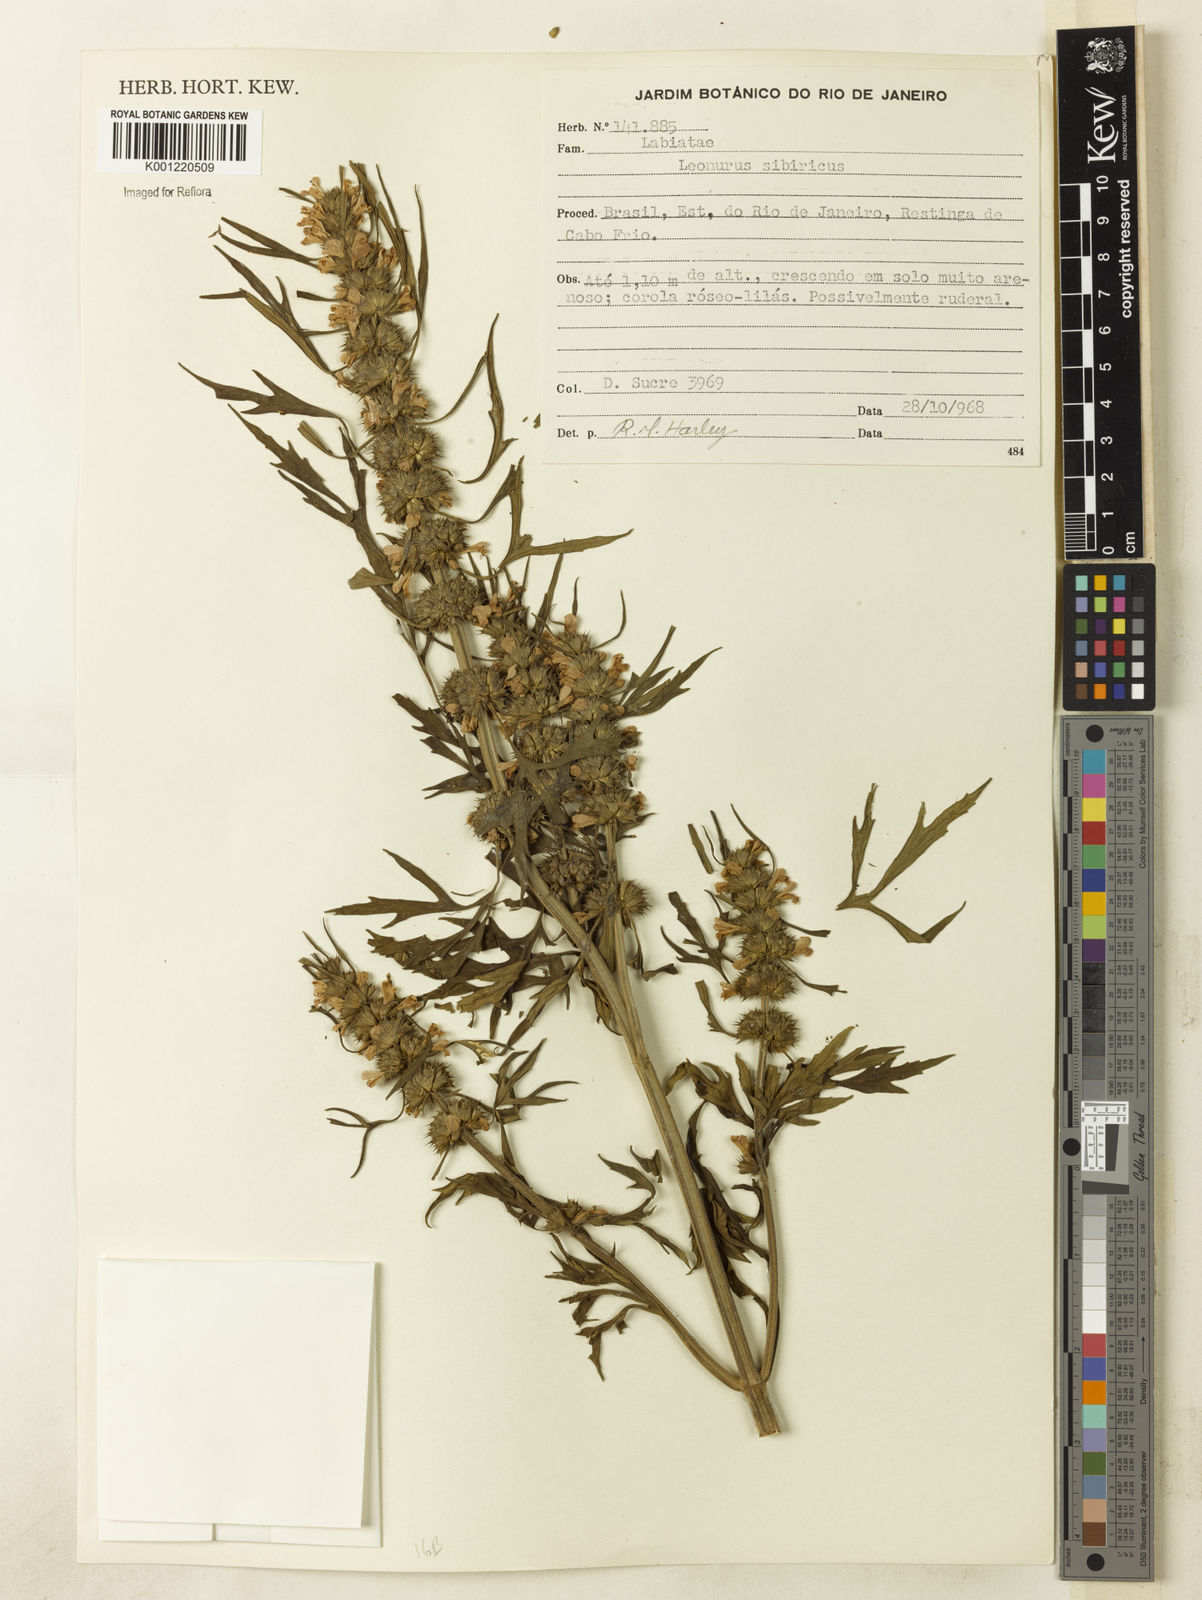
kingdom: Plantae
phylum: Tracheophyta
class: Magnoliopsida
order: Lamiales
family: Lamiaceae
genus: Leonurus
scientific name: Leonurus japonicus
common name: Honeyweed
